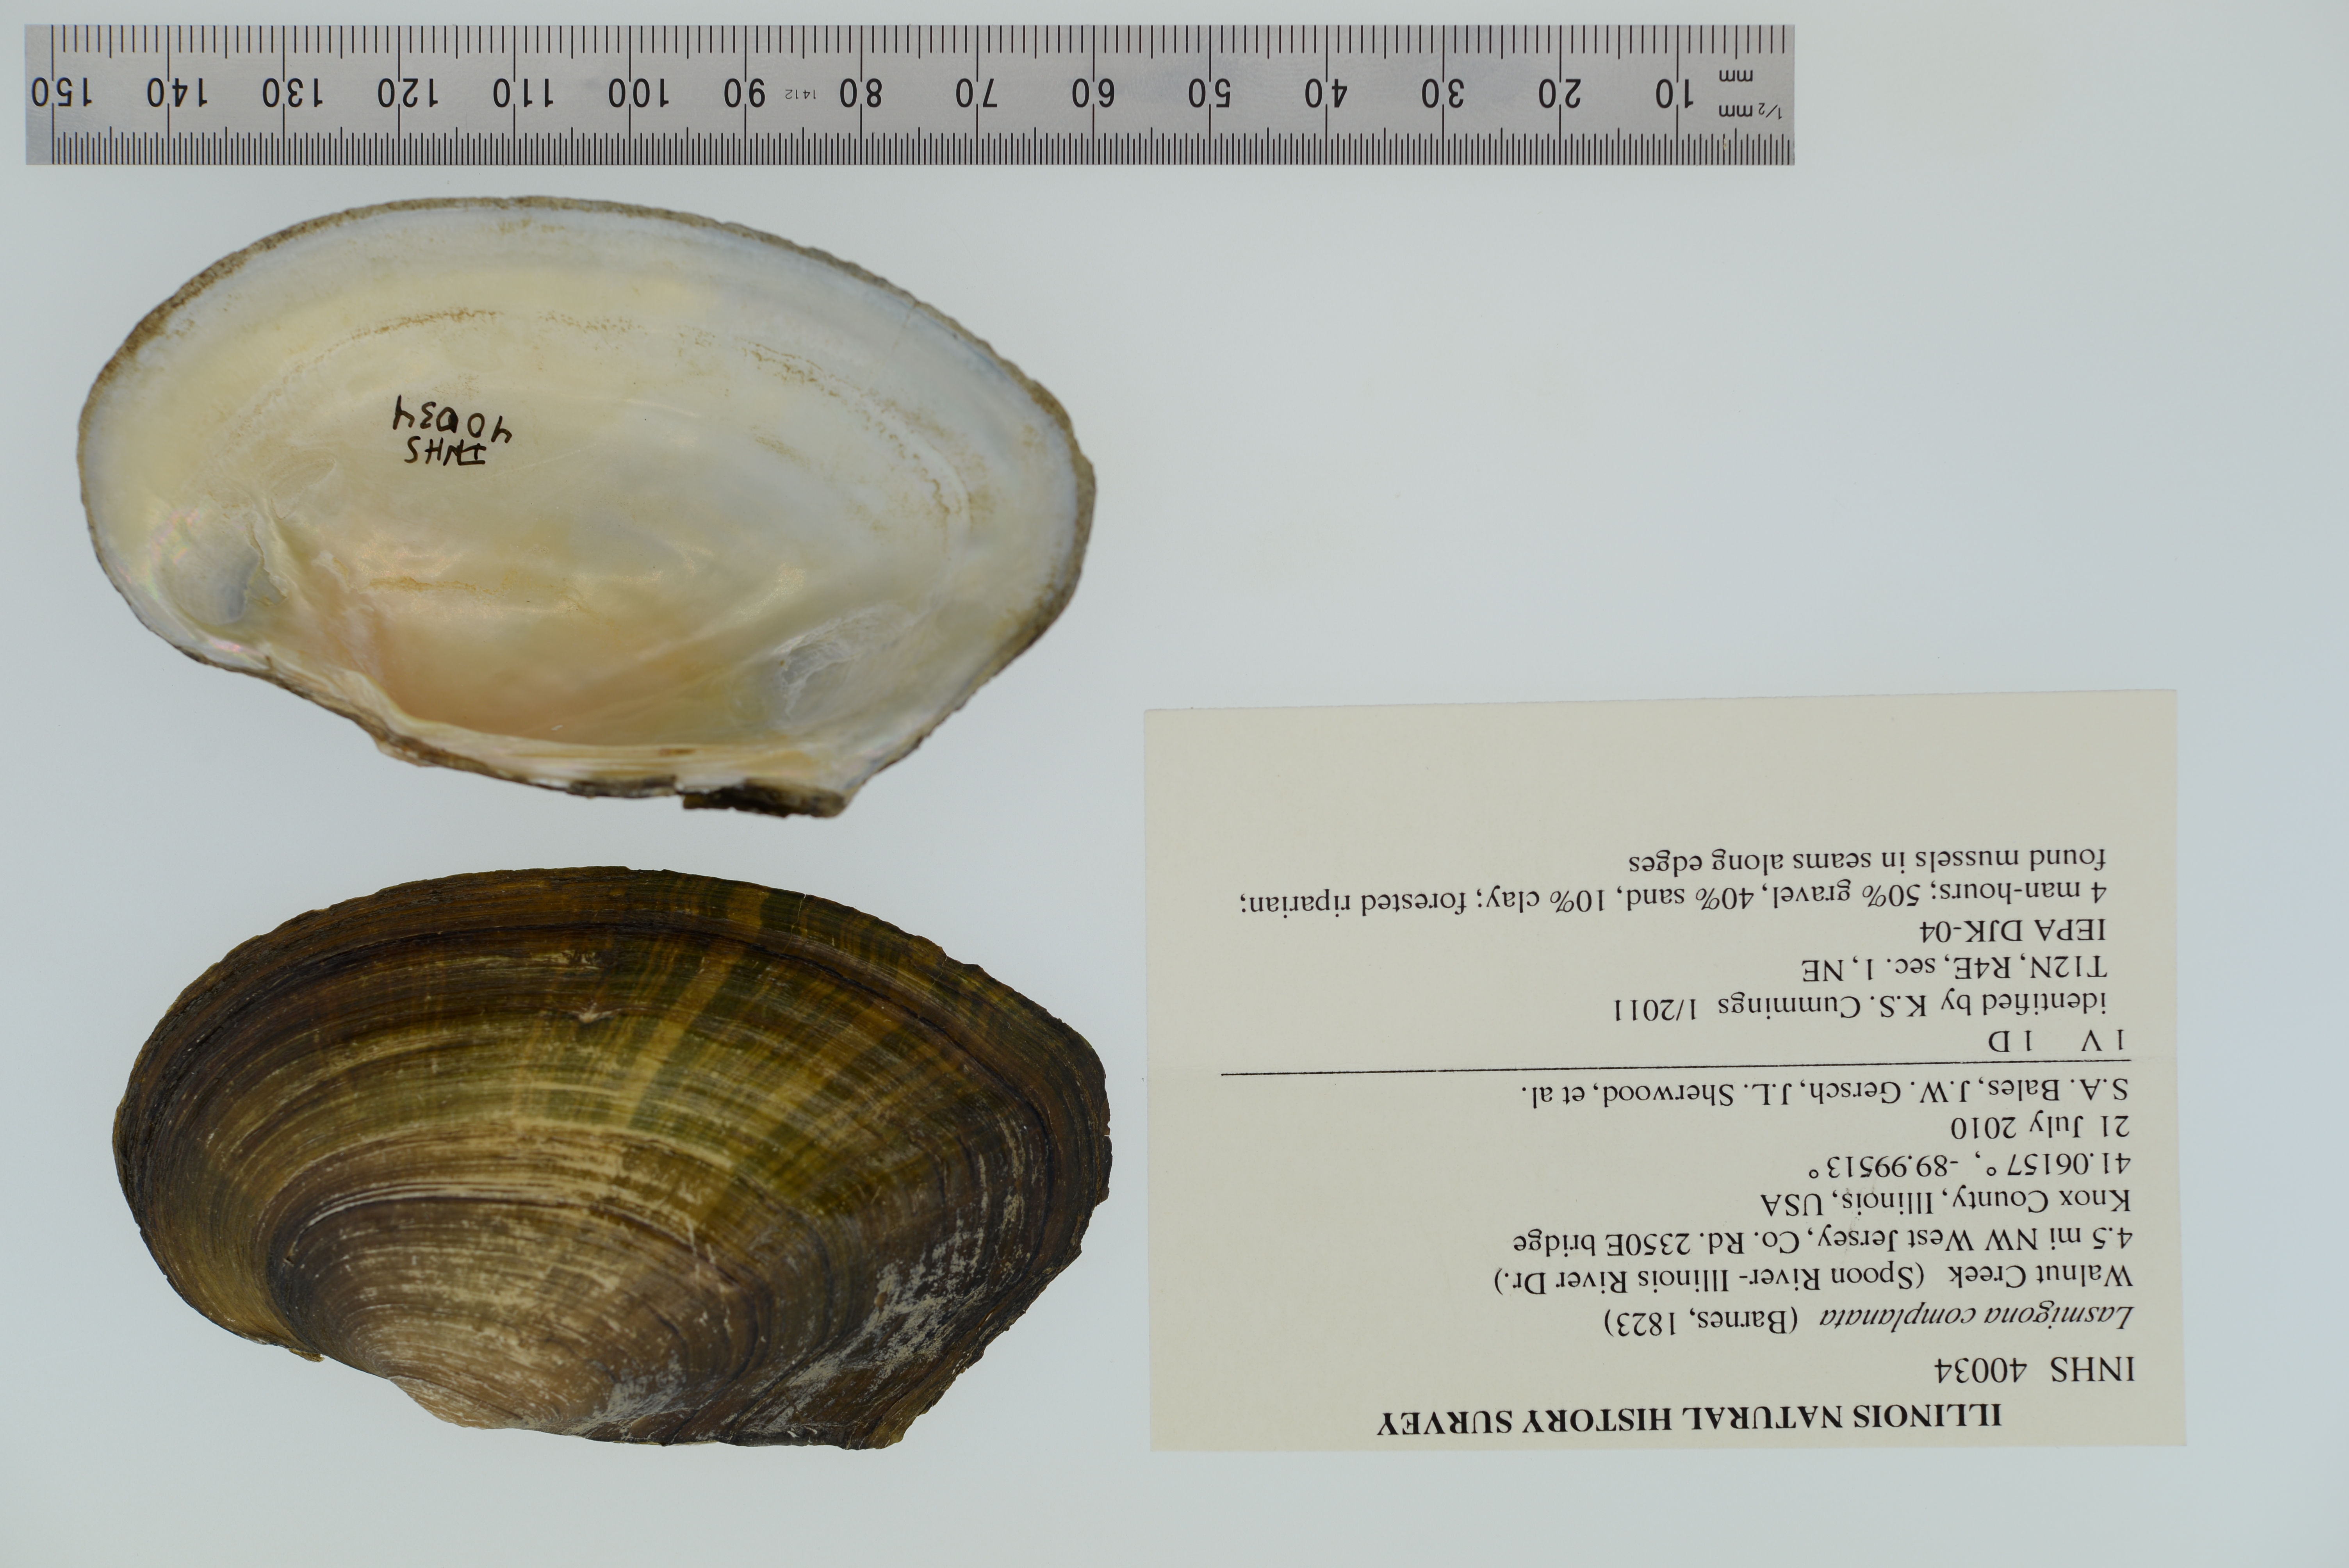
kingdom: Animalia
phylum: Mollusca
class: Bivalvia
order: Unionida
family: Unionidae
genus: Lasmigona
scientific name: Lasmigona compressa
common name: Creek heelsplitter
